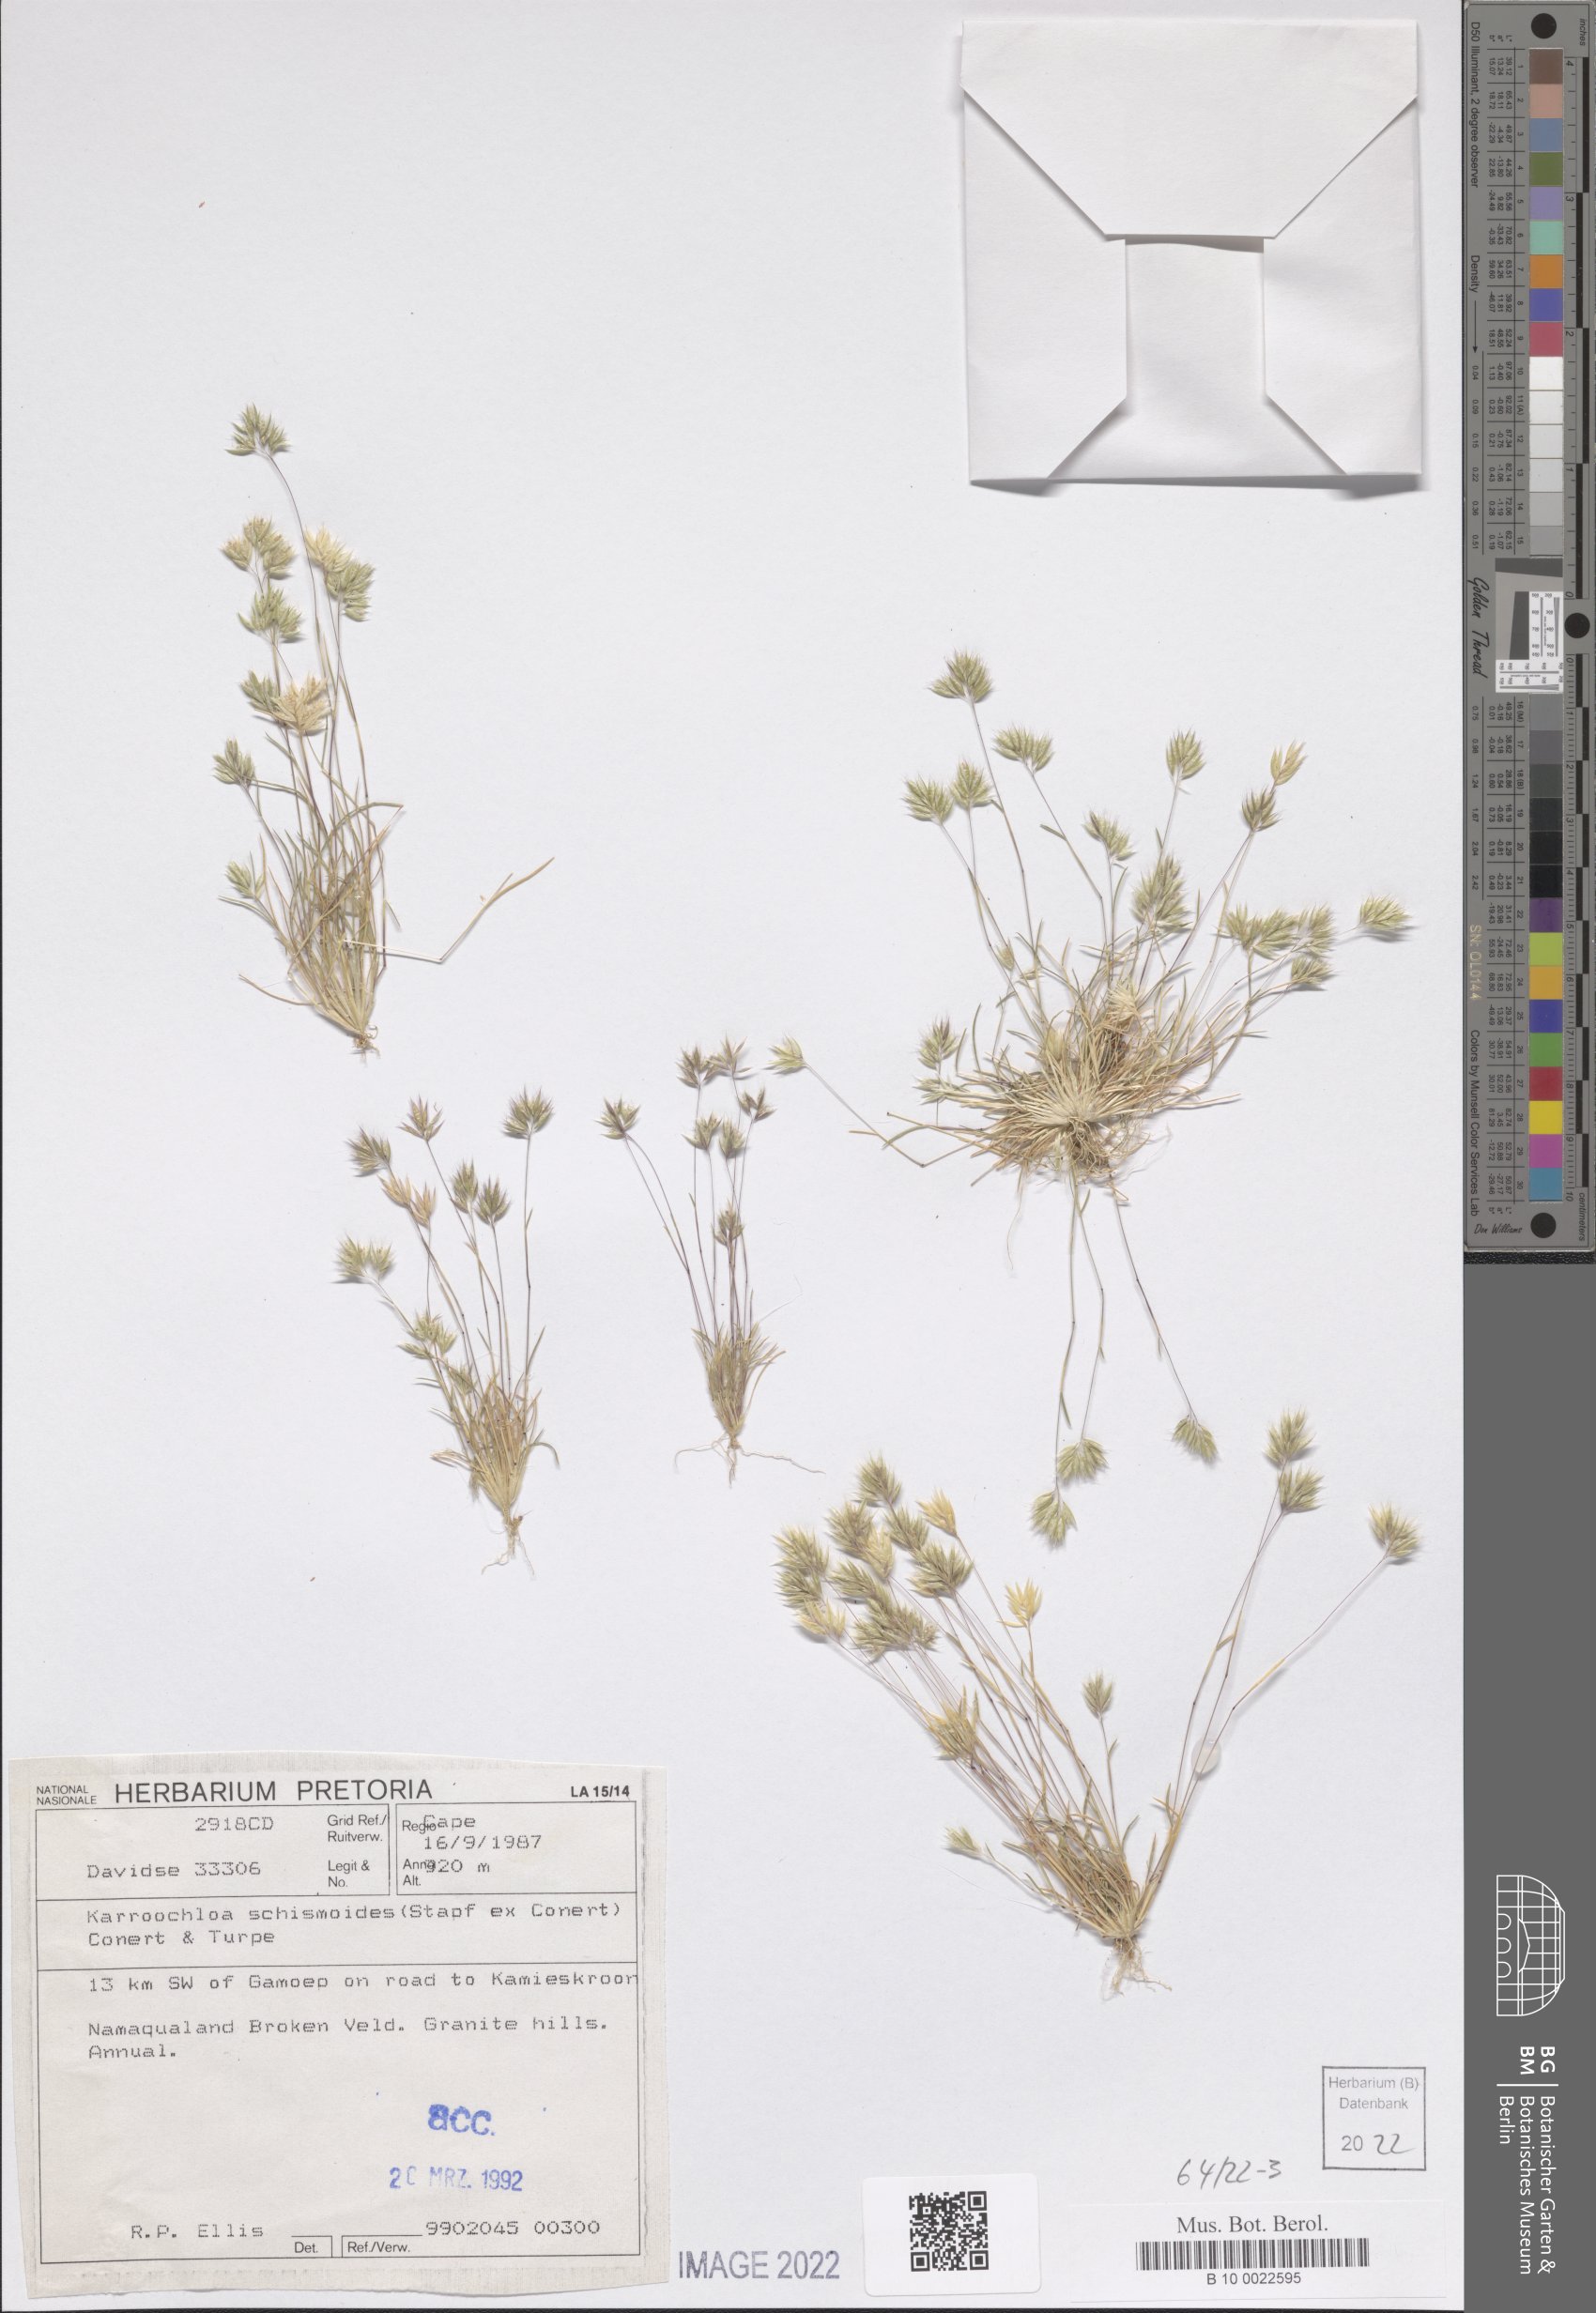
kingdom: Plantae
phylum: Tracheophyta
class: Liliopsida
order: Poales
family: Poaceae
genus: Schismus
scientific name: Schismus schismoides
